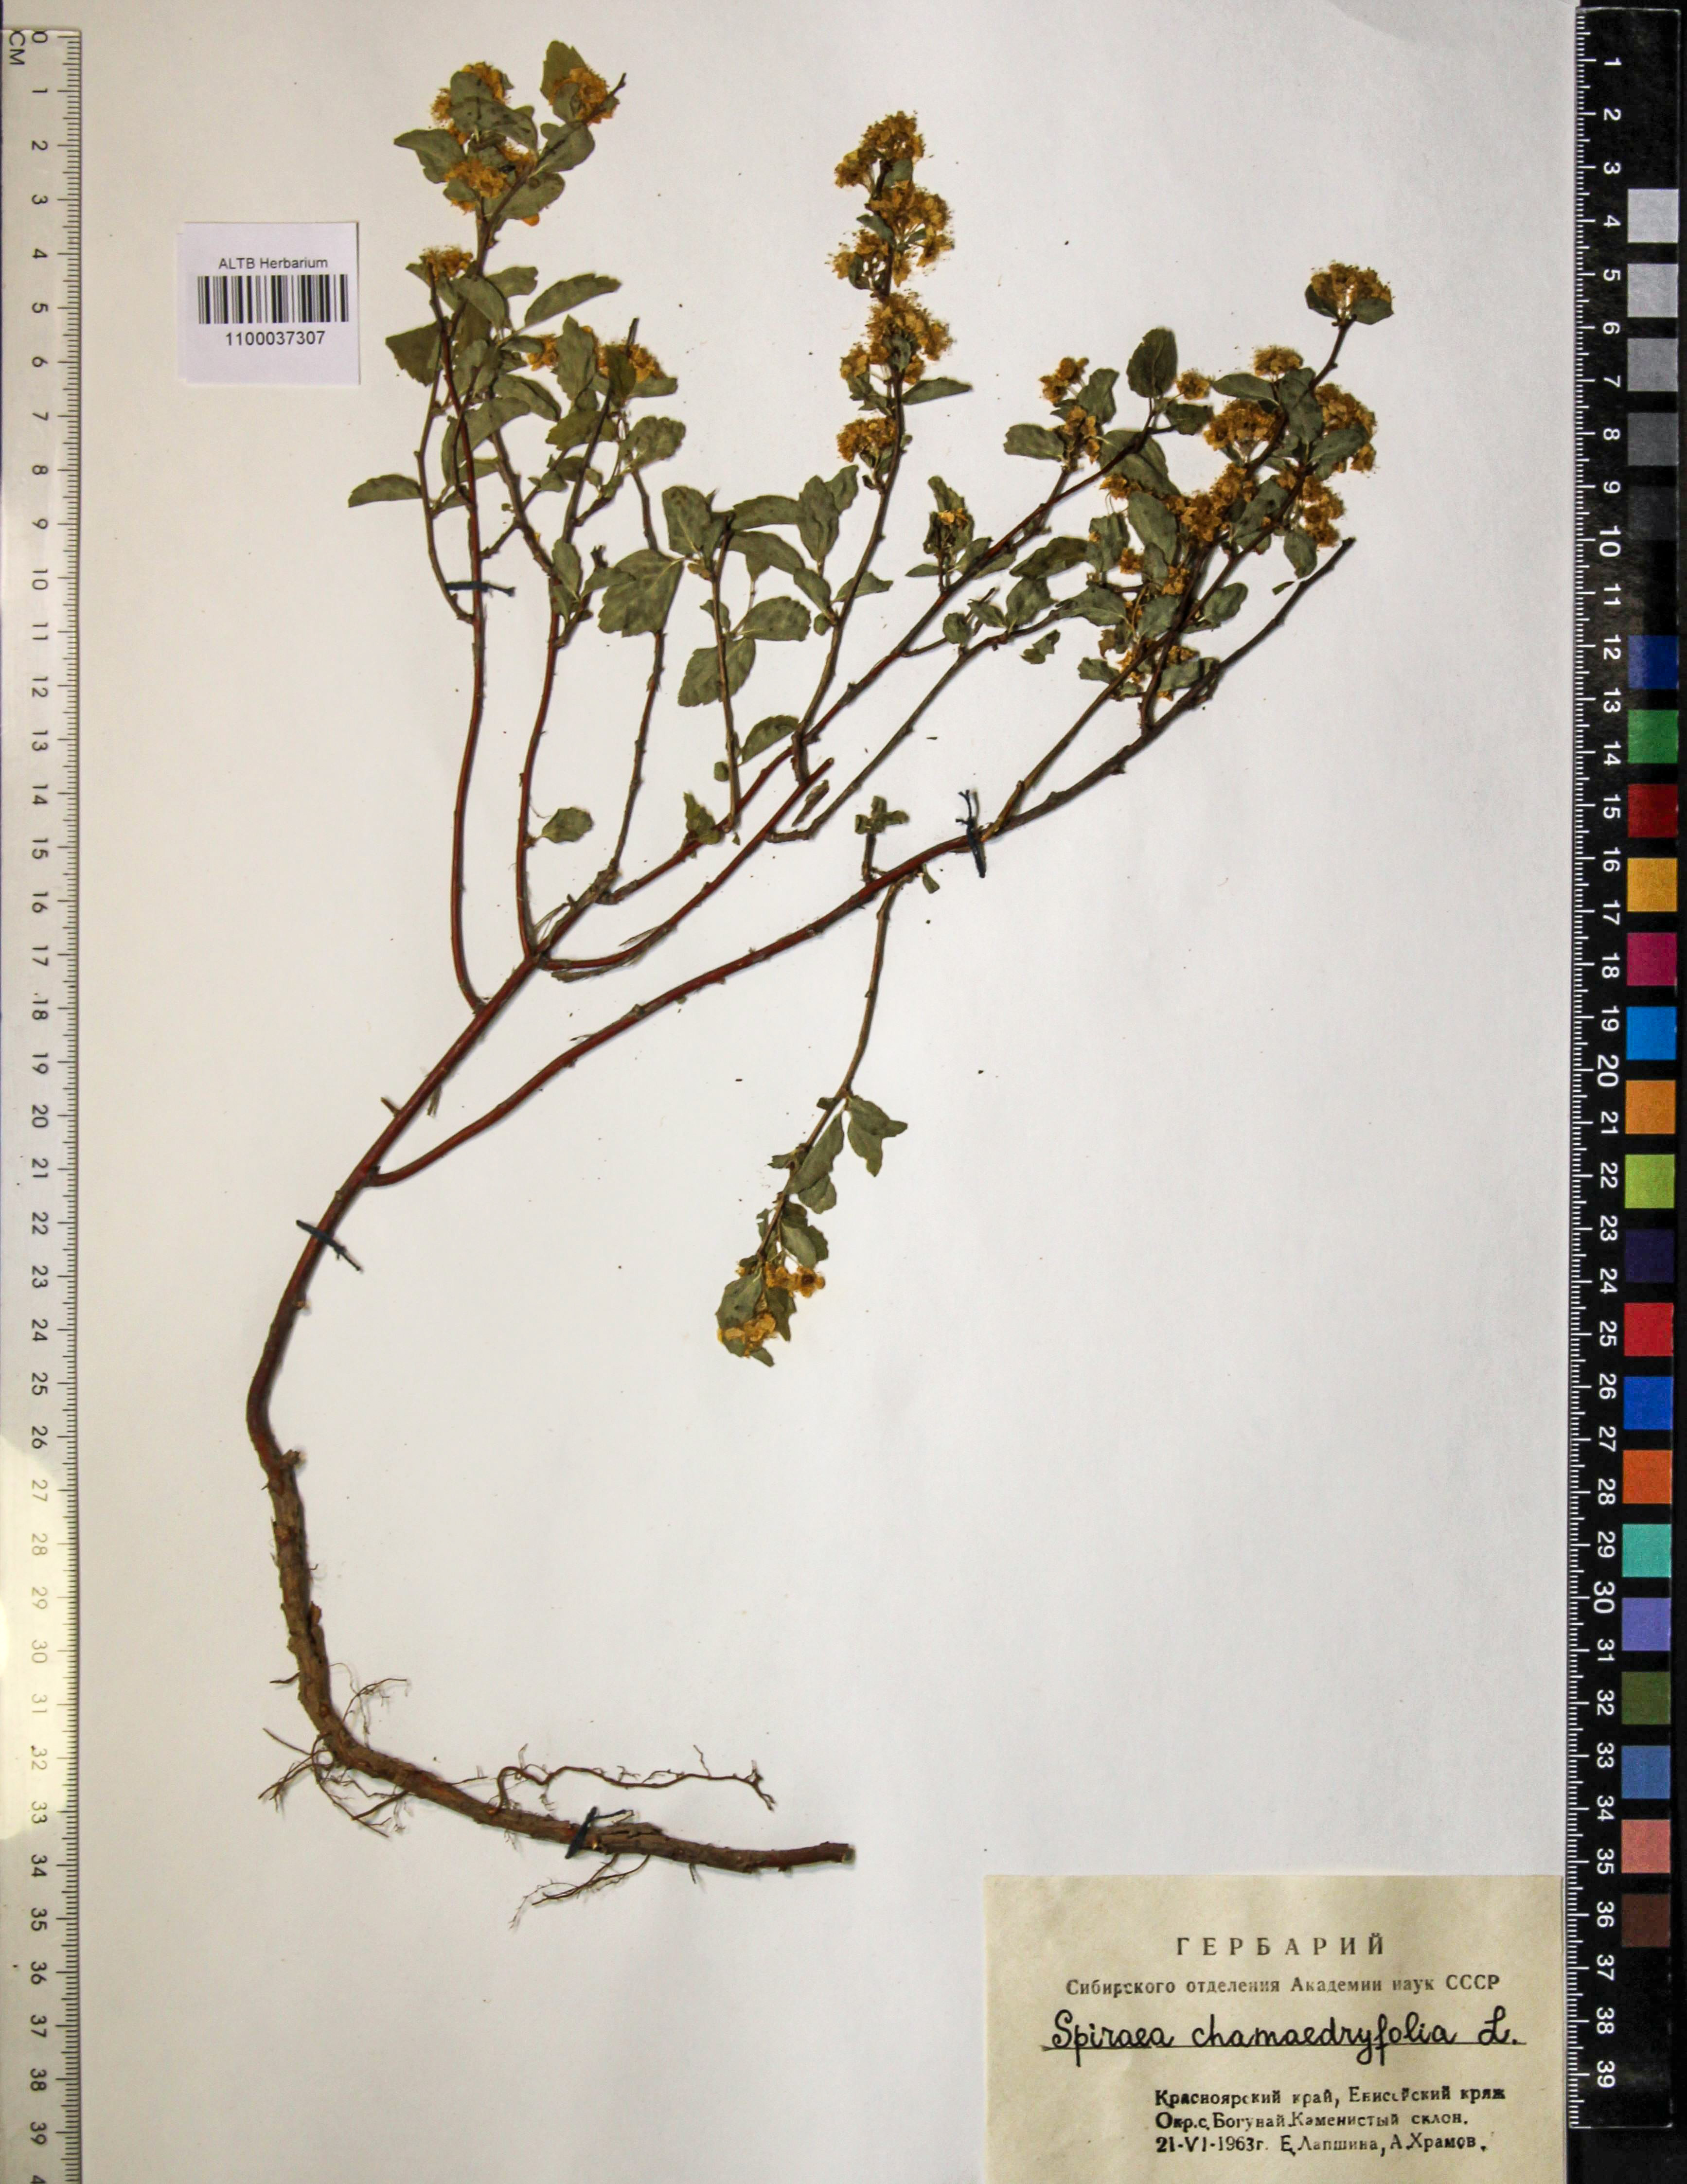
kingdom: Plantae
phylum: Tracheophyta
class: Magnoliopsida
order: Rosales
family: Rosaceae
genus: Spiraea
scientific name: Spiraea chamaedryfolia
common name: Elm-leaved spiraea
